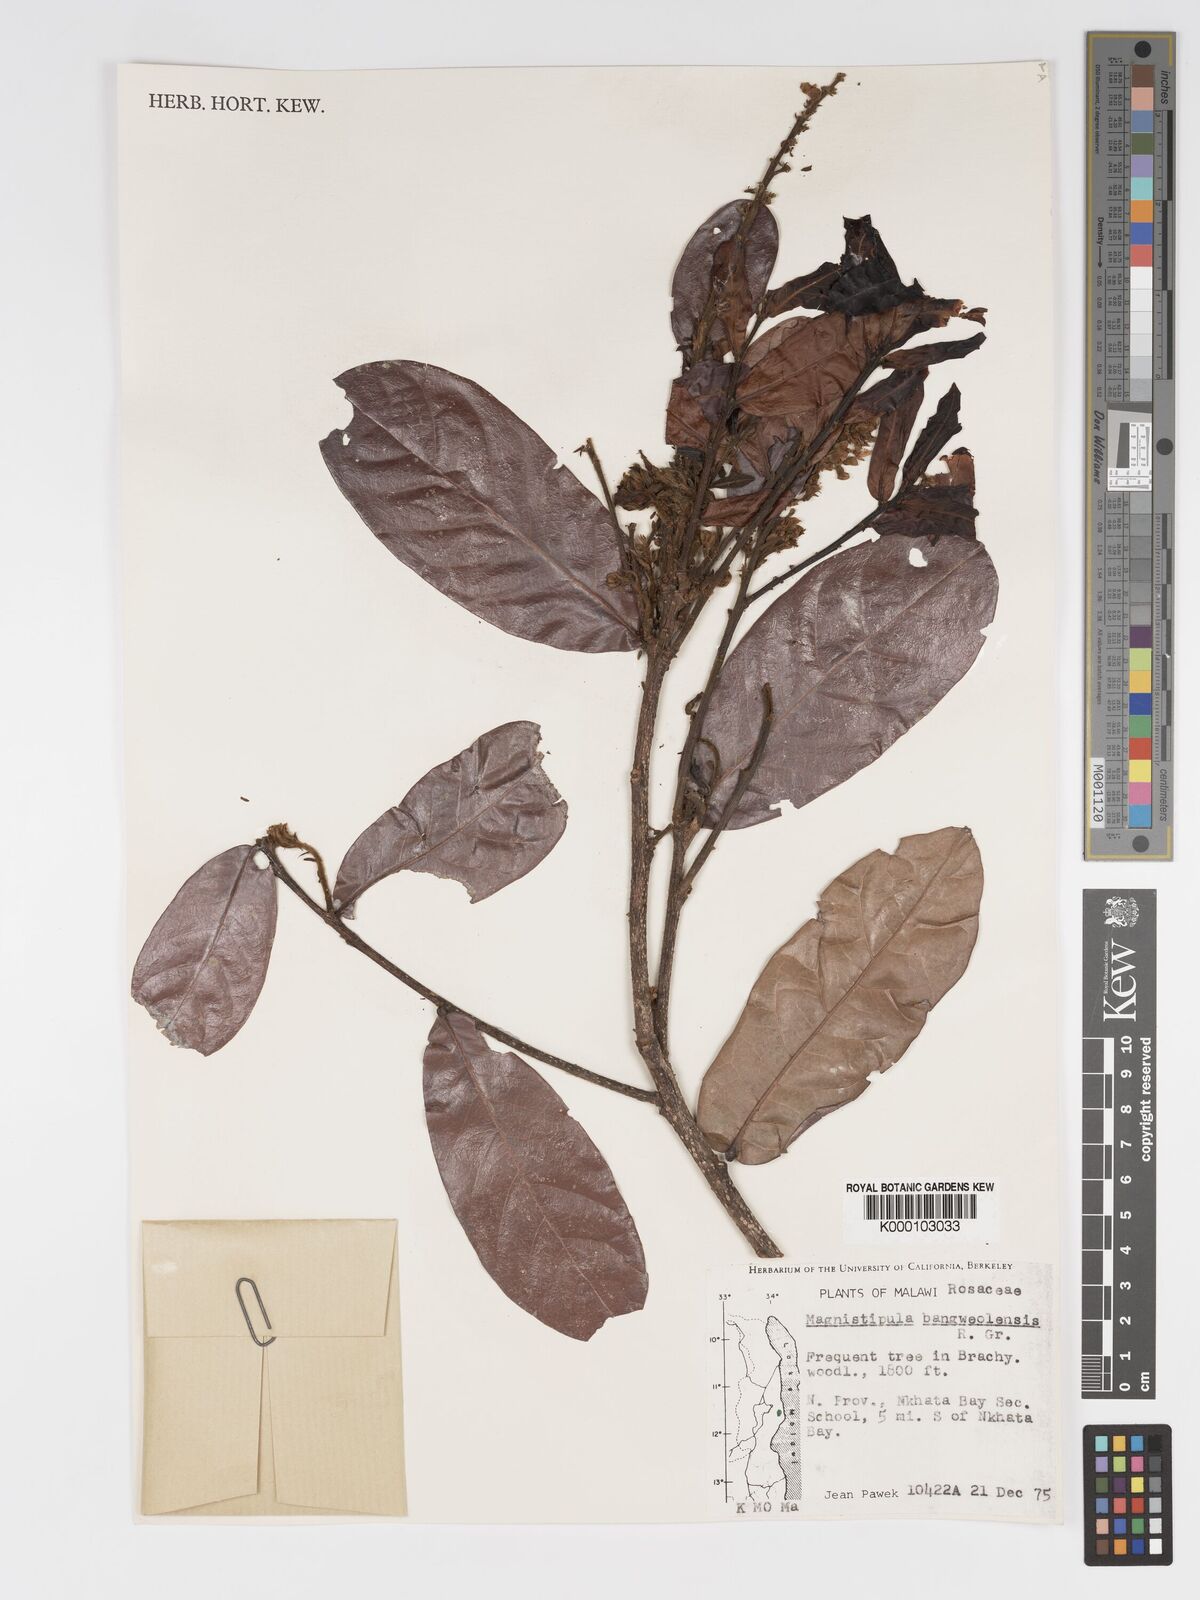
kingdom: Plantae
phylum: Tracheophyta
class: Magnoliopsida
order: Malpighiales
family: Chrysobalanaceae
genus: Magnistipula
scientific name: Magnistipula butayei
